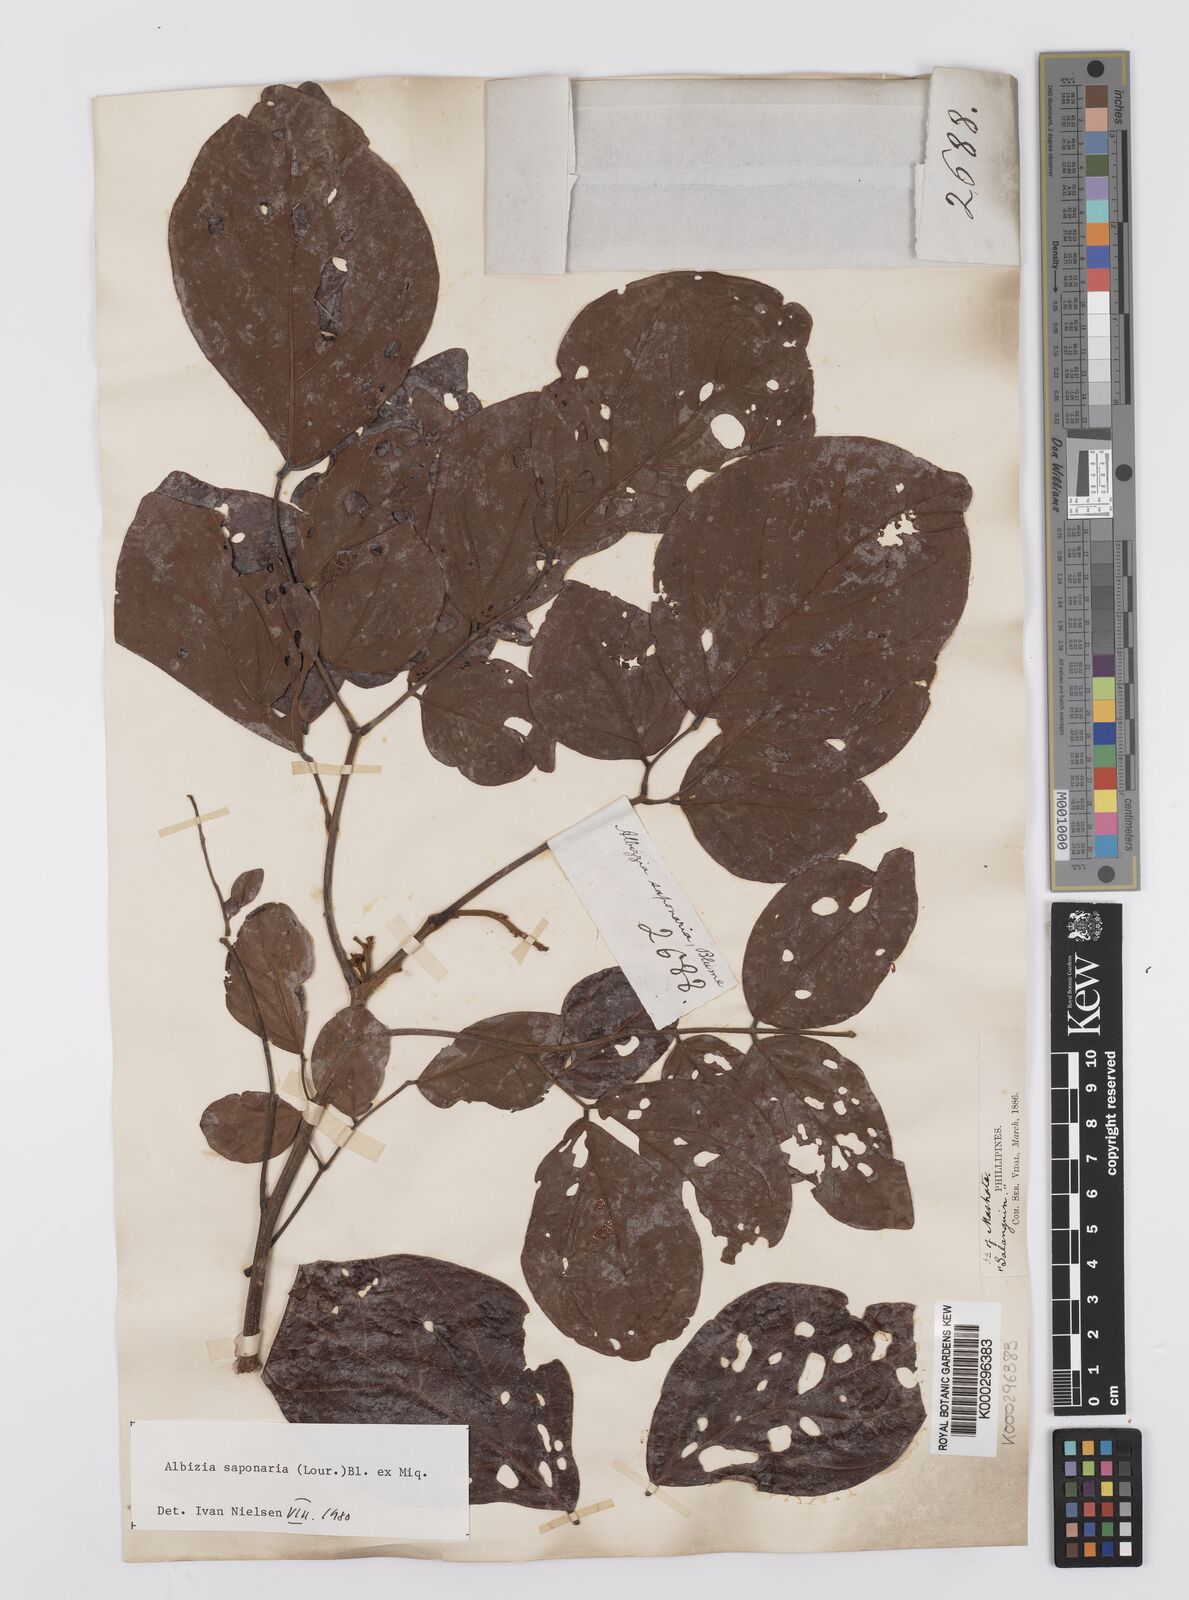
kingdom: Plantae
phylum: Tracheophyta
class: Magnoliopsida
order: Fabales
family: Fabaceae
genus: Albizia
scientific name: Albizia saponaria
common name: Whiteflower albizia
